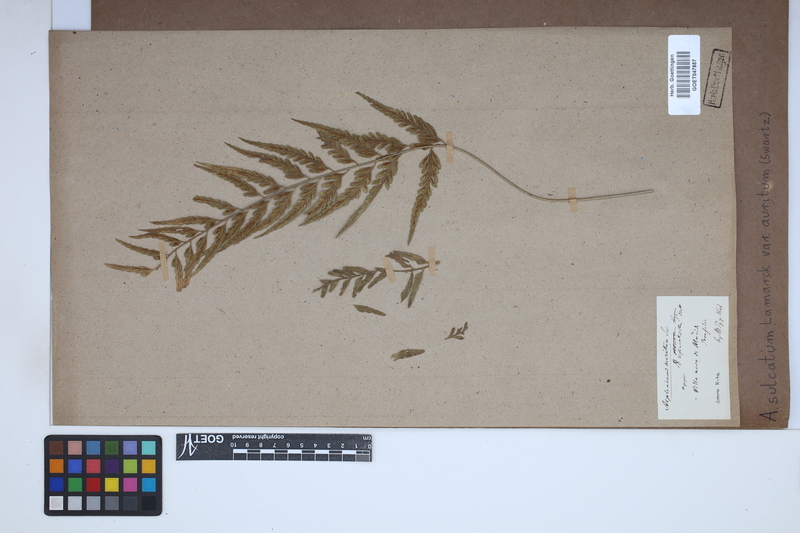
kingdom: Plantae
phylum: Tracheophyta
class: Polypodiopsida
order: Polypodiales
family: Aspleniaceae
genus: Asplenium
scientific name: Asplenium auritum
